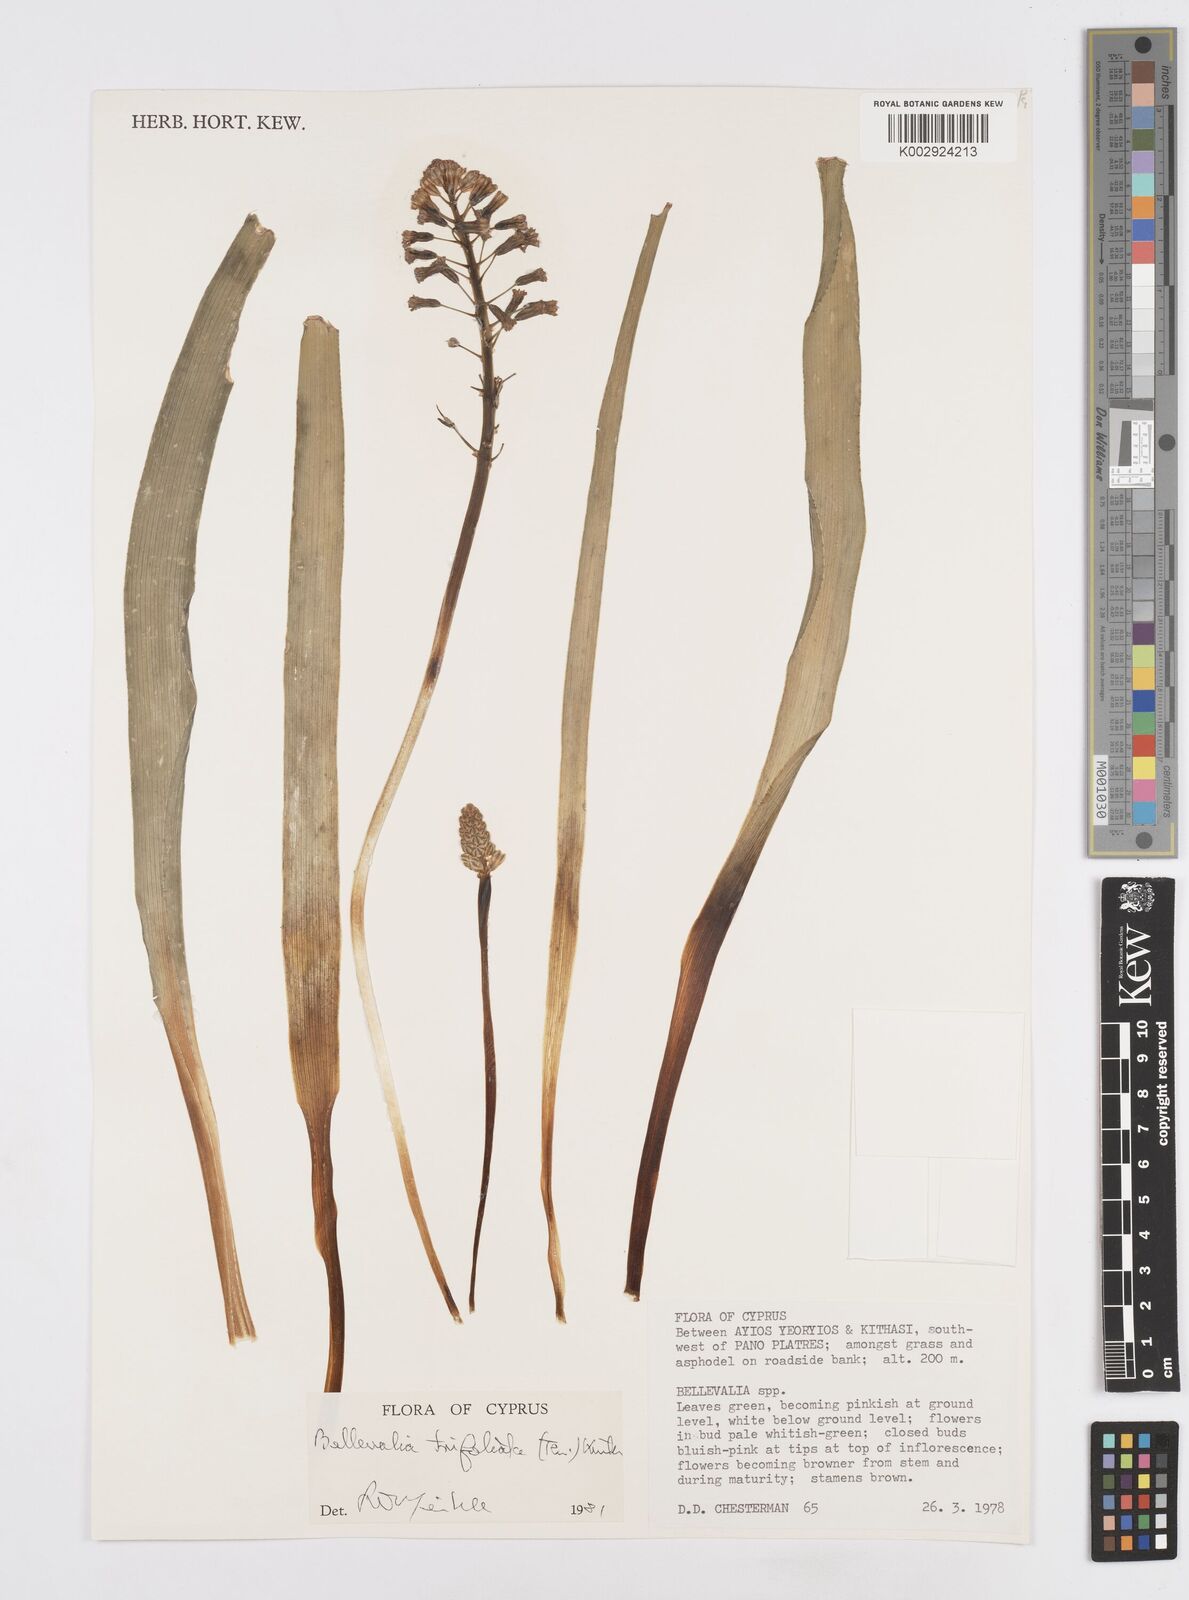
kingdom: Plantae
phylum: Tracheophyta
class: Liliopsida
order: Asparagales
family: Asparagaceae
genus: Bellevalia
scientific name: Bellevalia trifoliata
